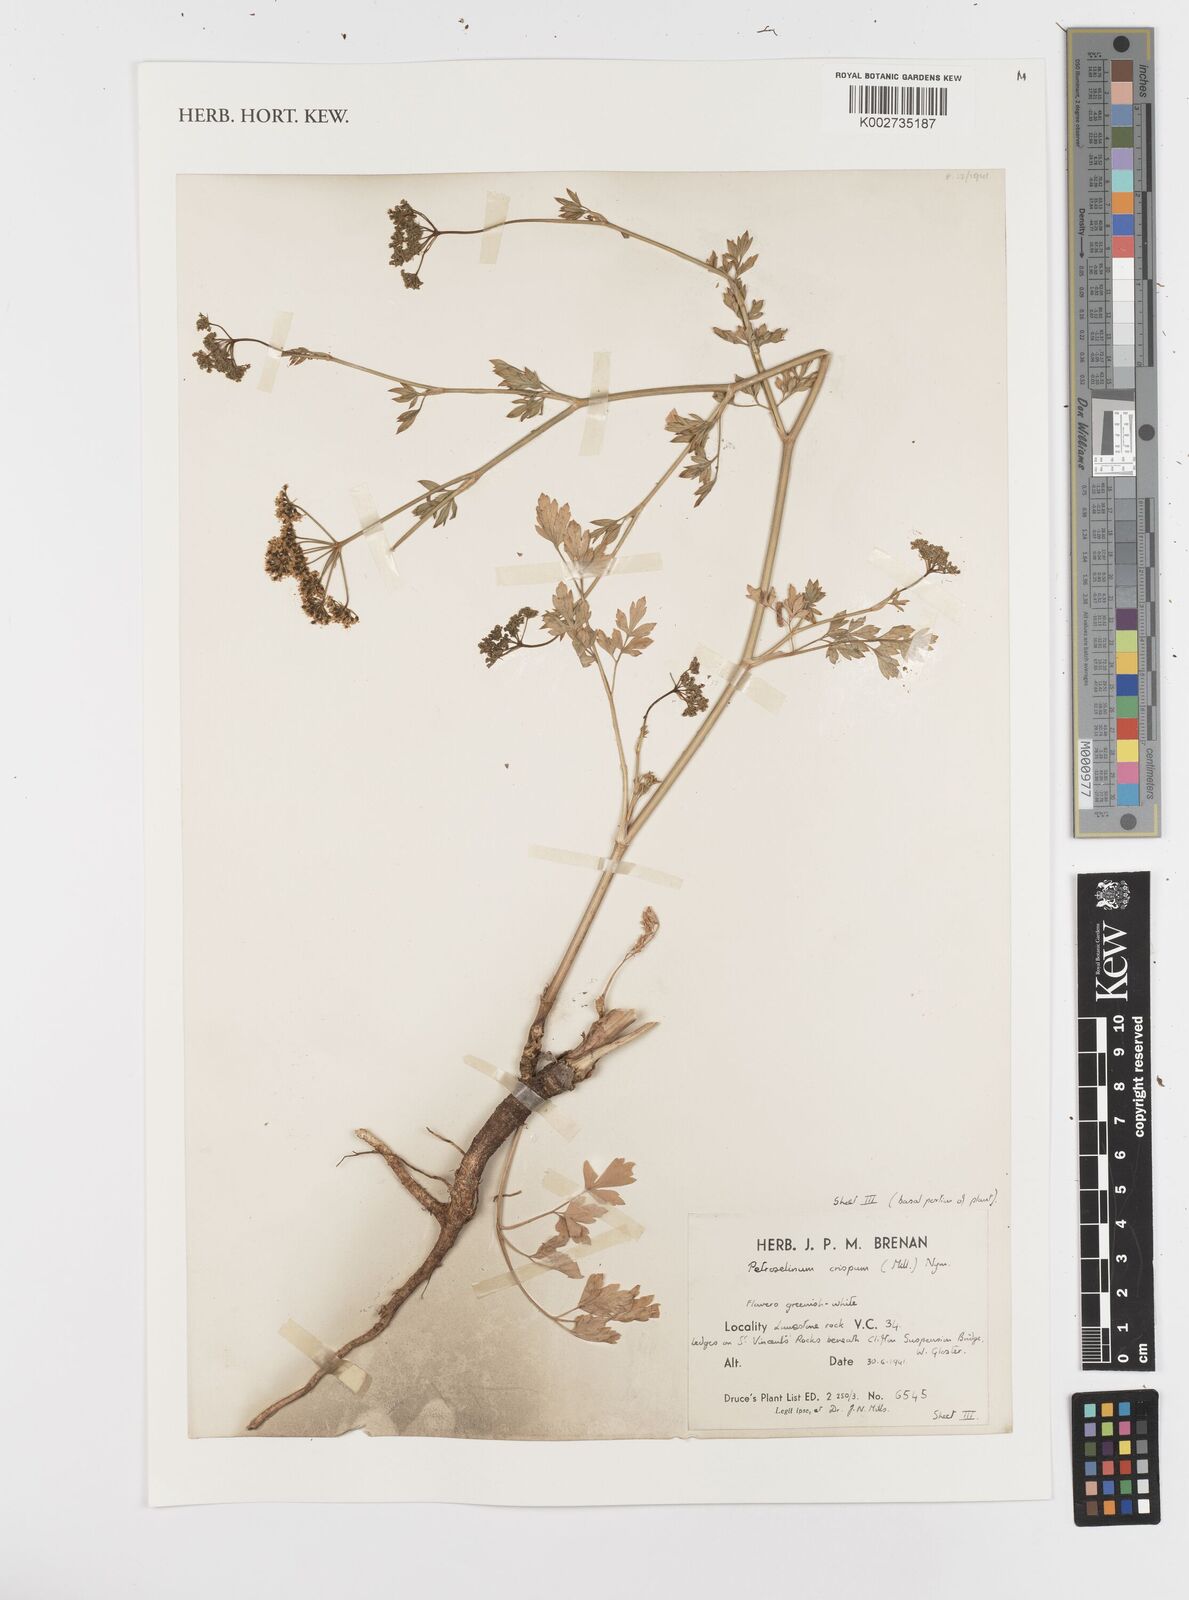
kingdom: Plantae
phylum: Tracheophyta
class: Magnoliopsida
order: Apiales
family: Apiaceae
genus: Petroselinum
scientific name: Petroselinum crispum
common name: Parsley
